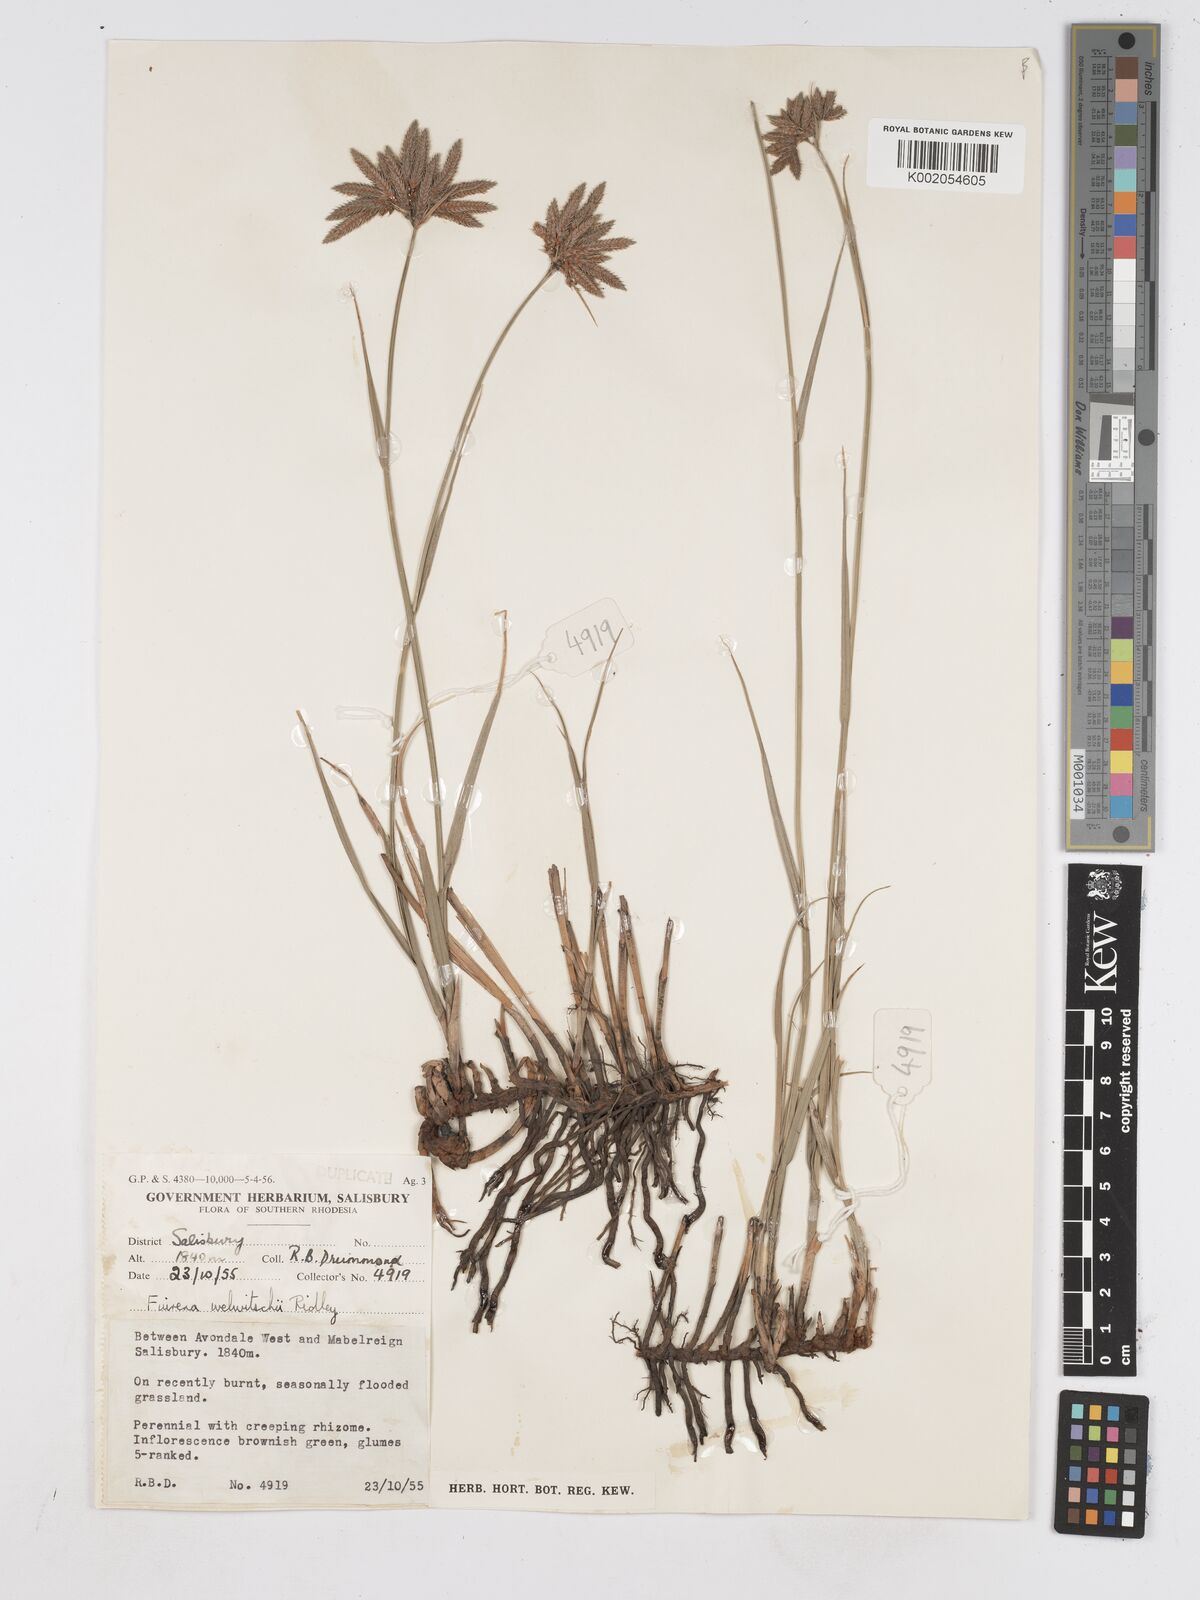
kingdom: Plantae
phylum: Tracheophyta
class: Liliopsida
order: Poales
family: Cyperaceae
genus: Fuirena
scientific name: Fuirena welwitschii
